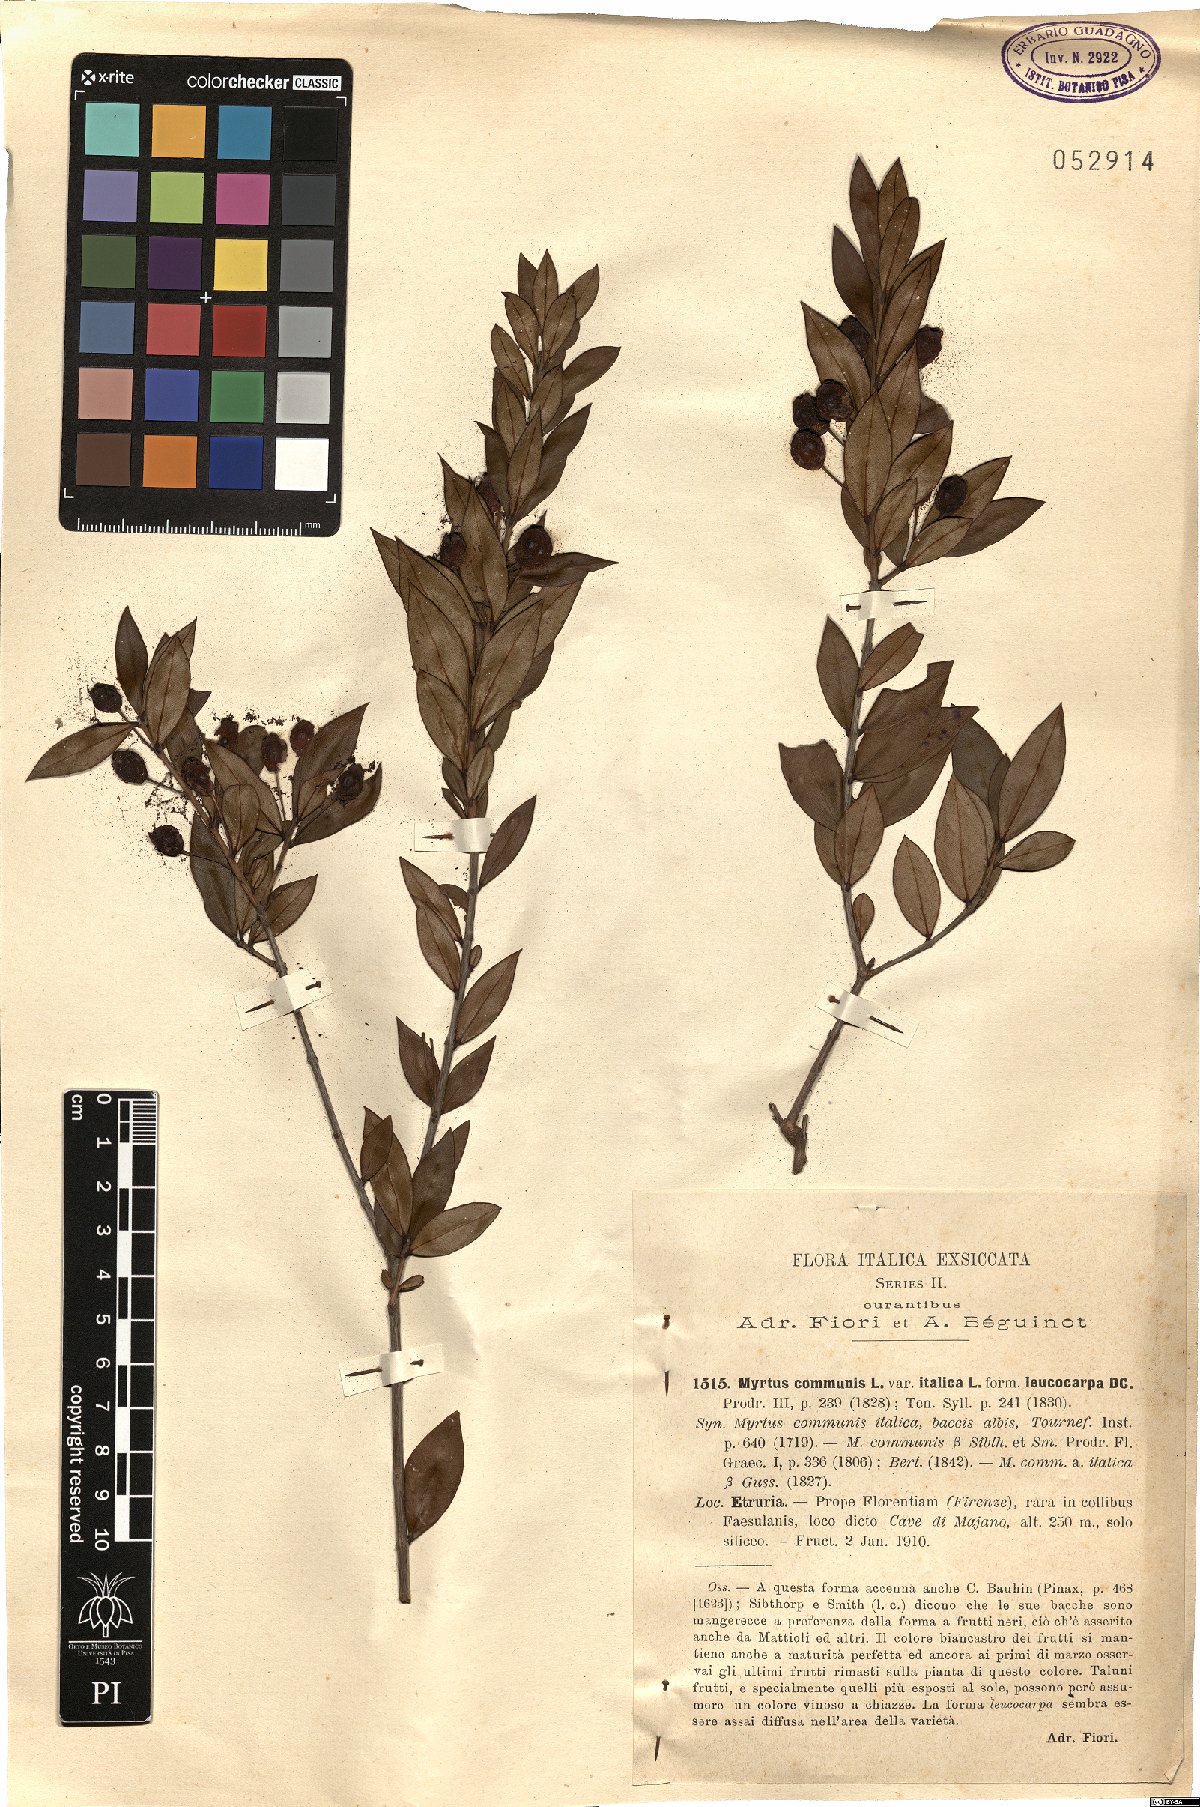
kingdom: Plantae
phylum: Tracheophyta
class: Magnoliopsida
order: Myrtales
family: Myrtaceae
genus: Myrtus
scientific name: Myrtus communis
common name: Myrtle
